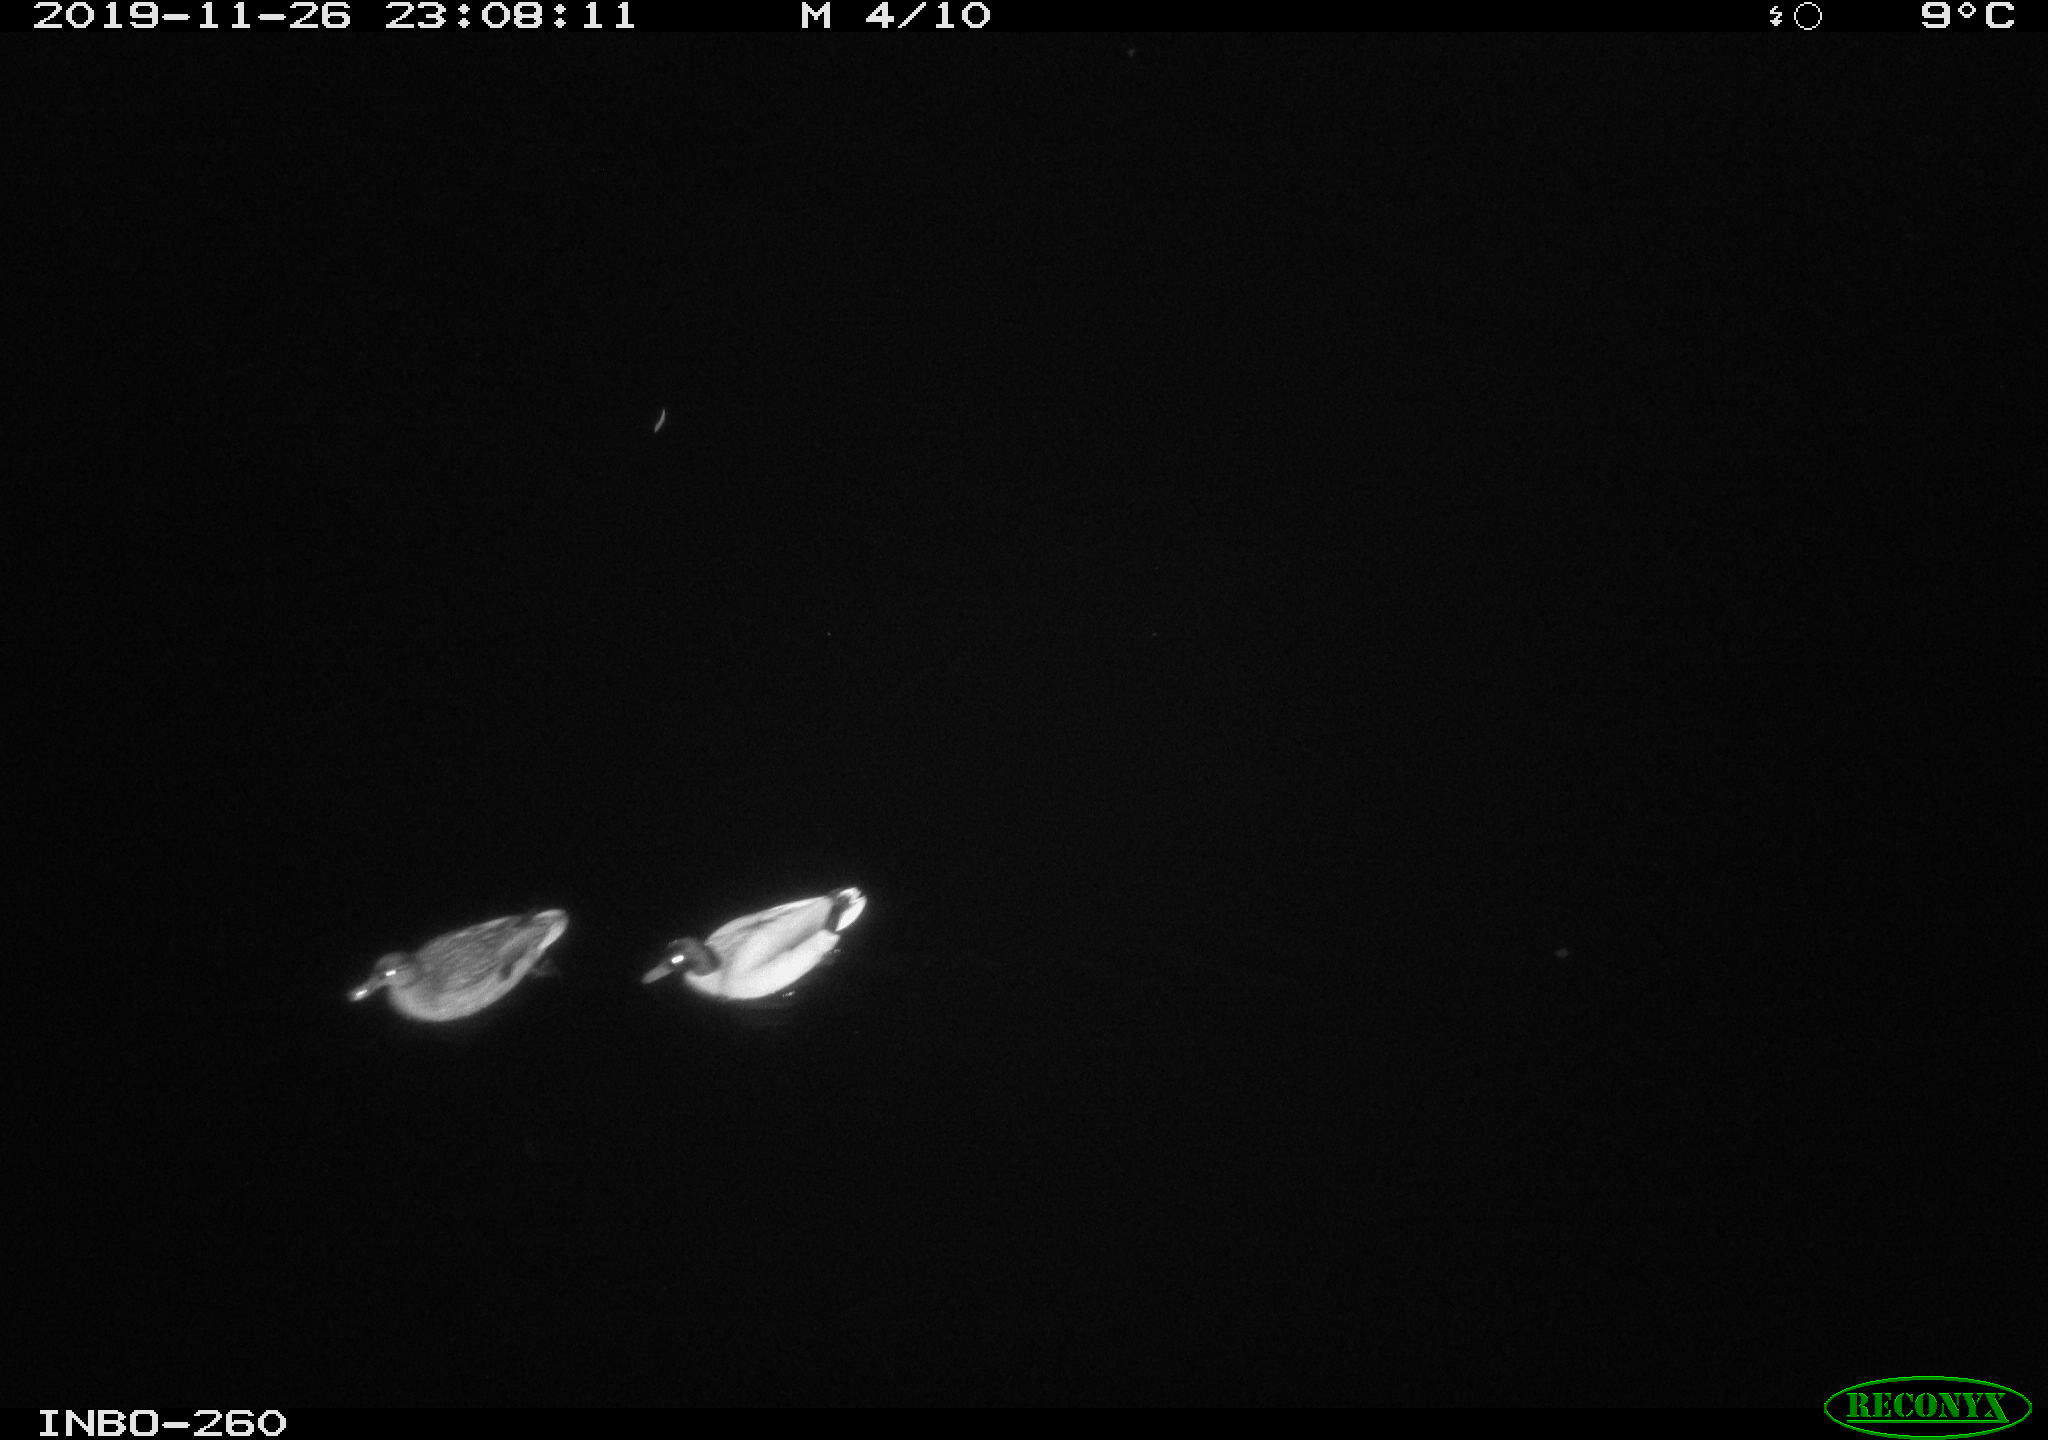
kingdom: Animalia
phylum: Chordata
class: Aves
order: Anseriformes
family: Anatidae
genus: Anas
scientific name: Anas platyrhynchos
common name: Mallard
